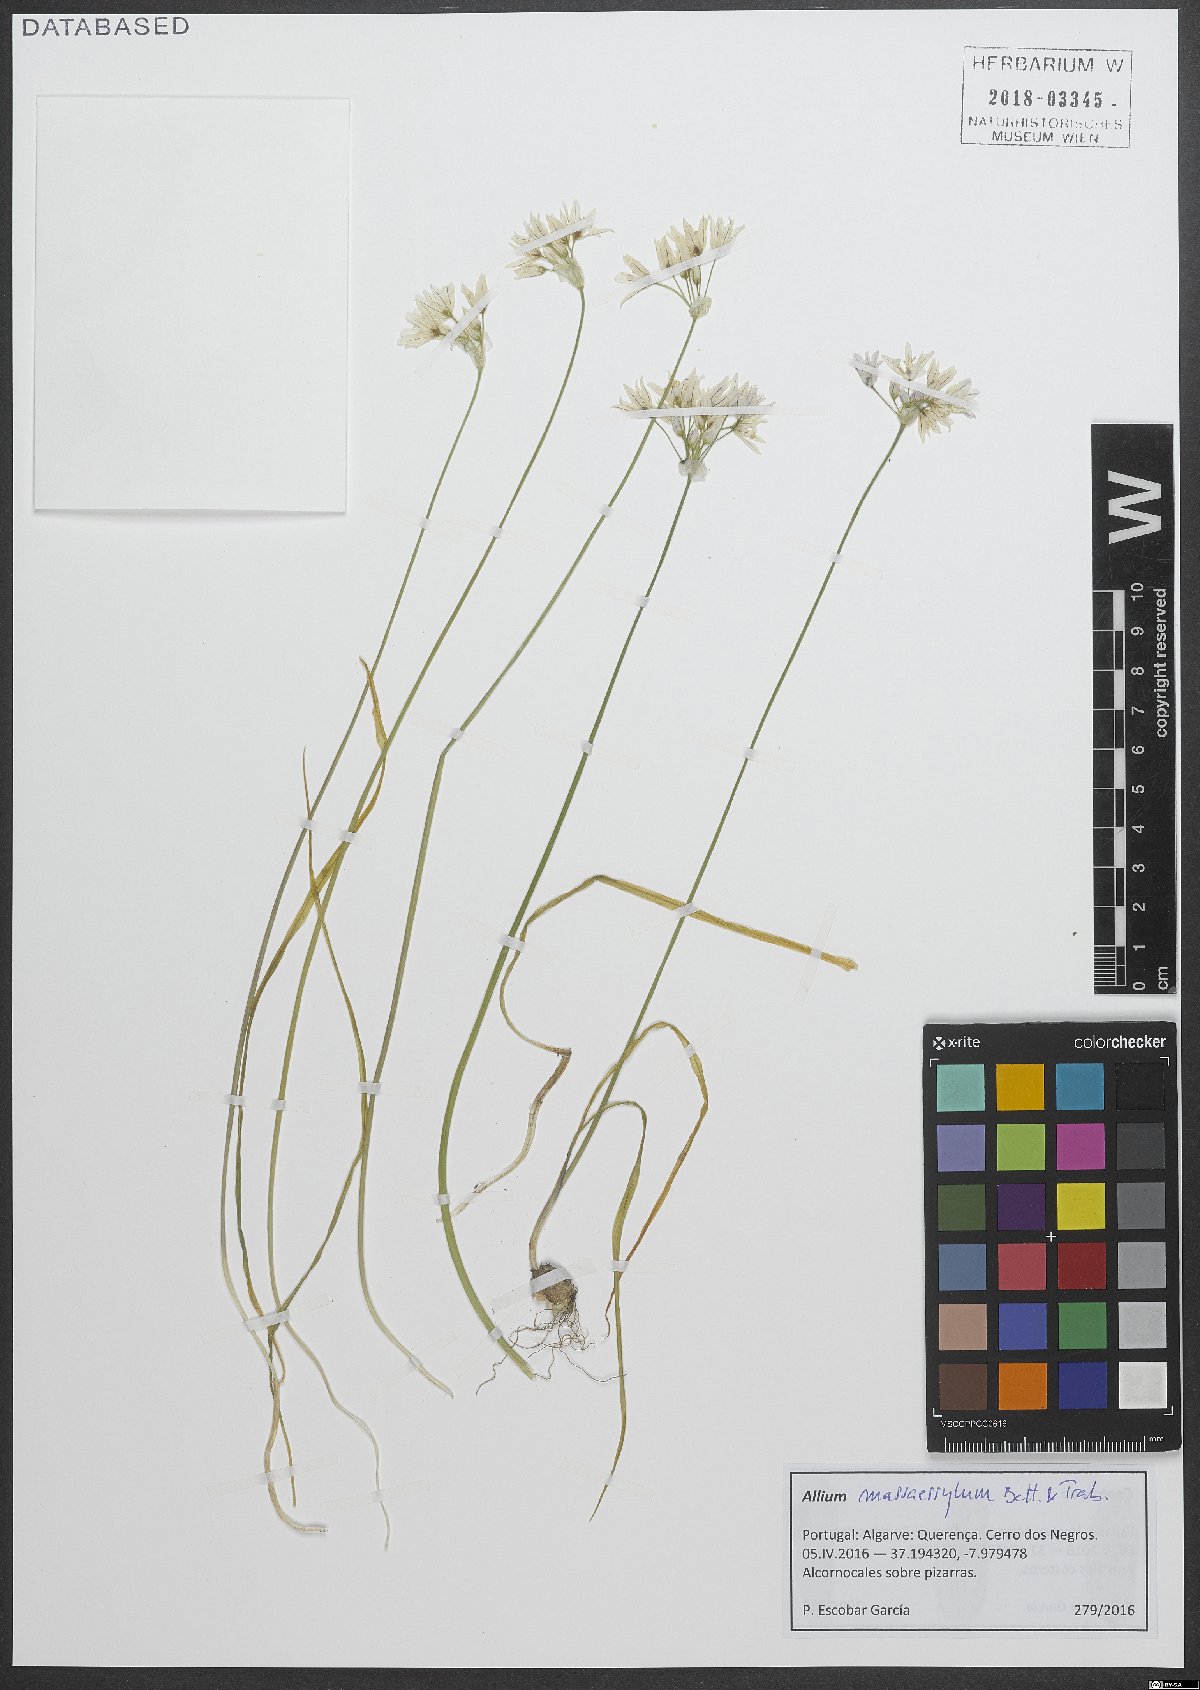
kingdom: Plantae
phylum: Tracheophyta
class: Liliopsida
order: Asparagales
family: Amaryllidaceae
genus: Allium
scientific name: Allium massaessylum
